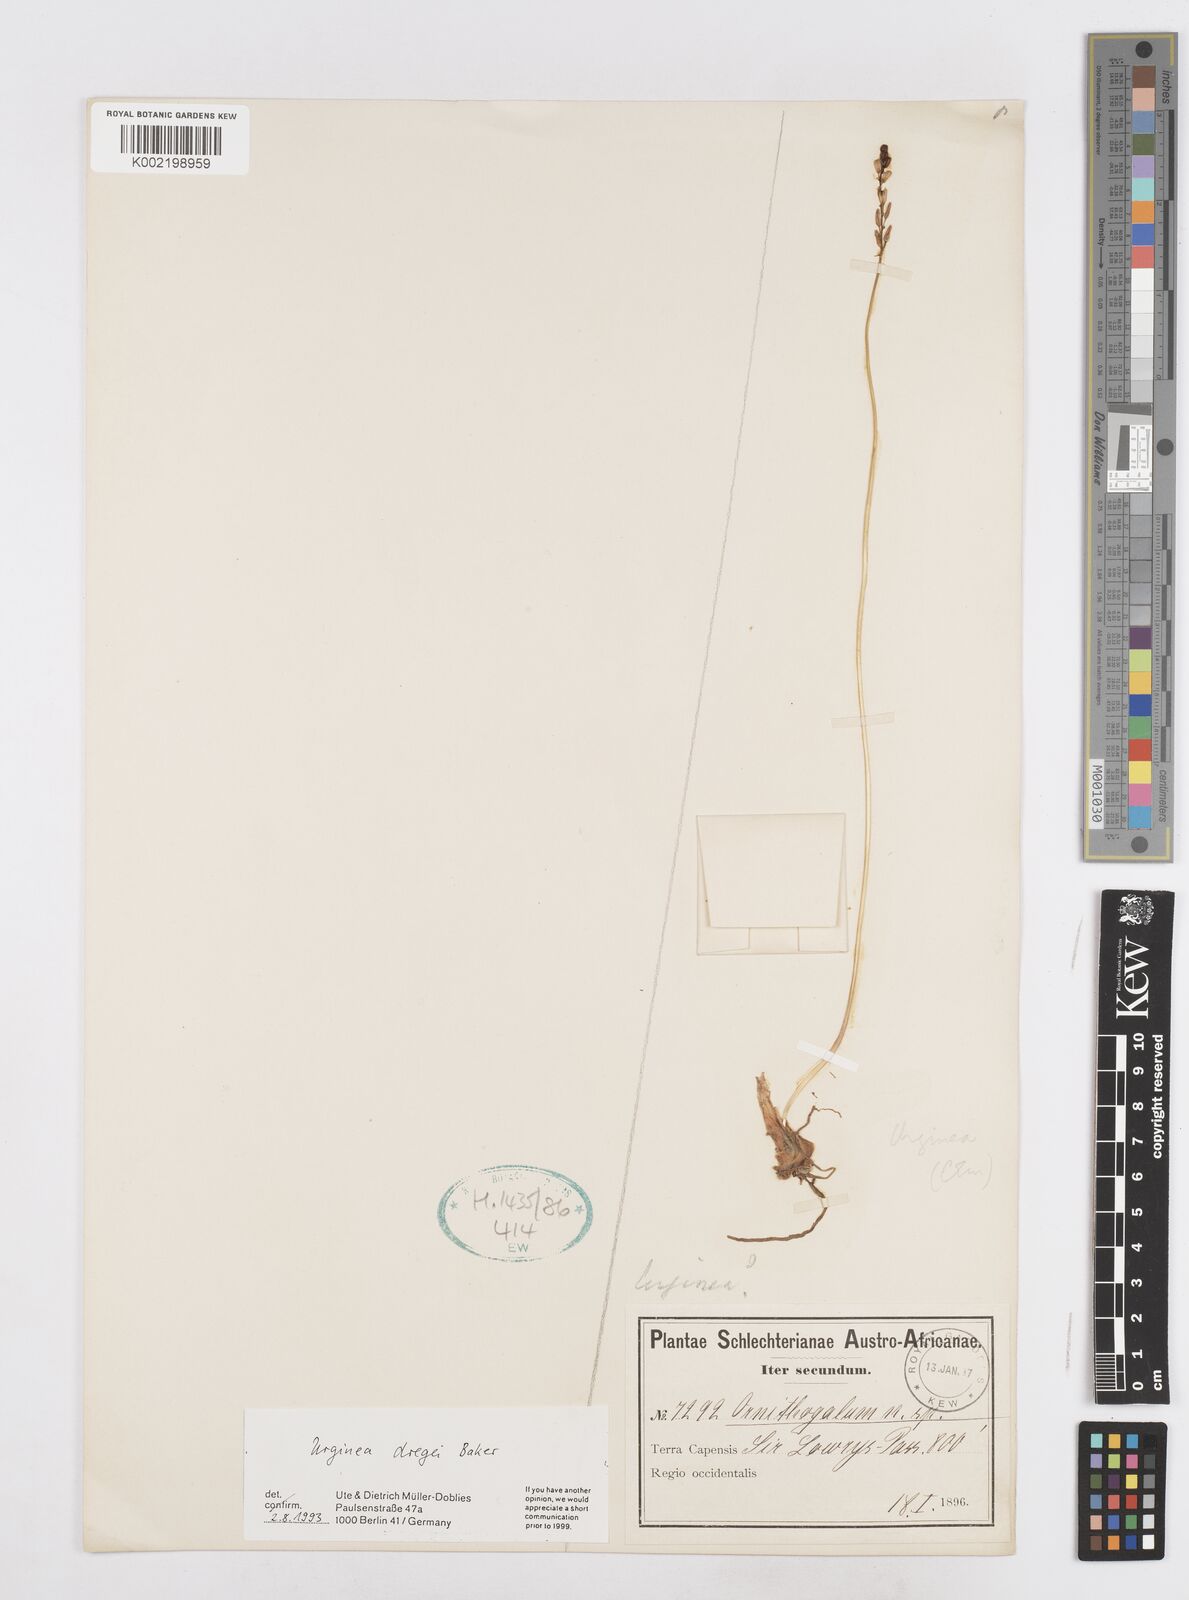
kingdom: Plantae
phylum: Tracheophyta
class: Liliopsida
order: Asparagales
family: Asparagaceae
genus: Drimia
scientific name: Drimia dregei
